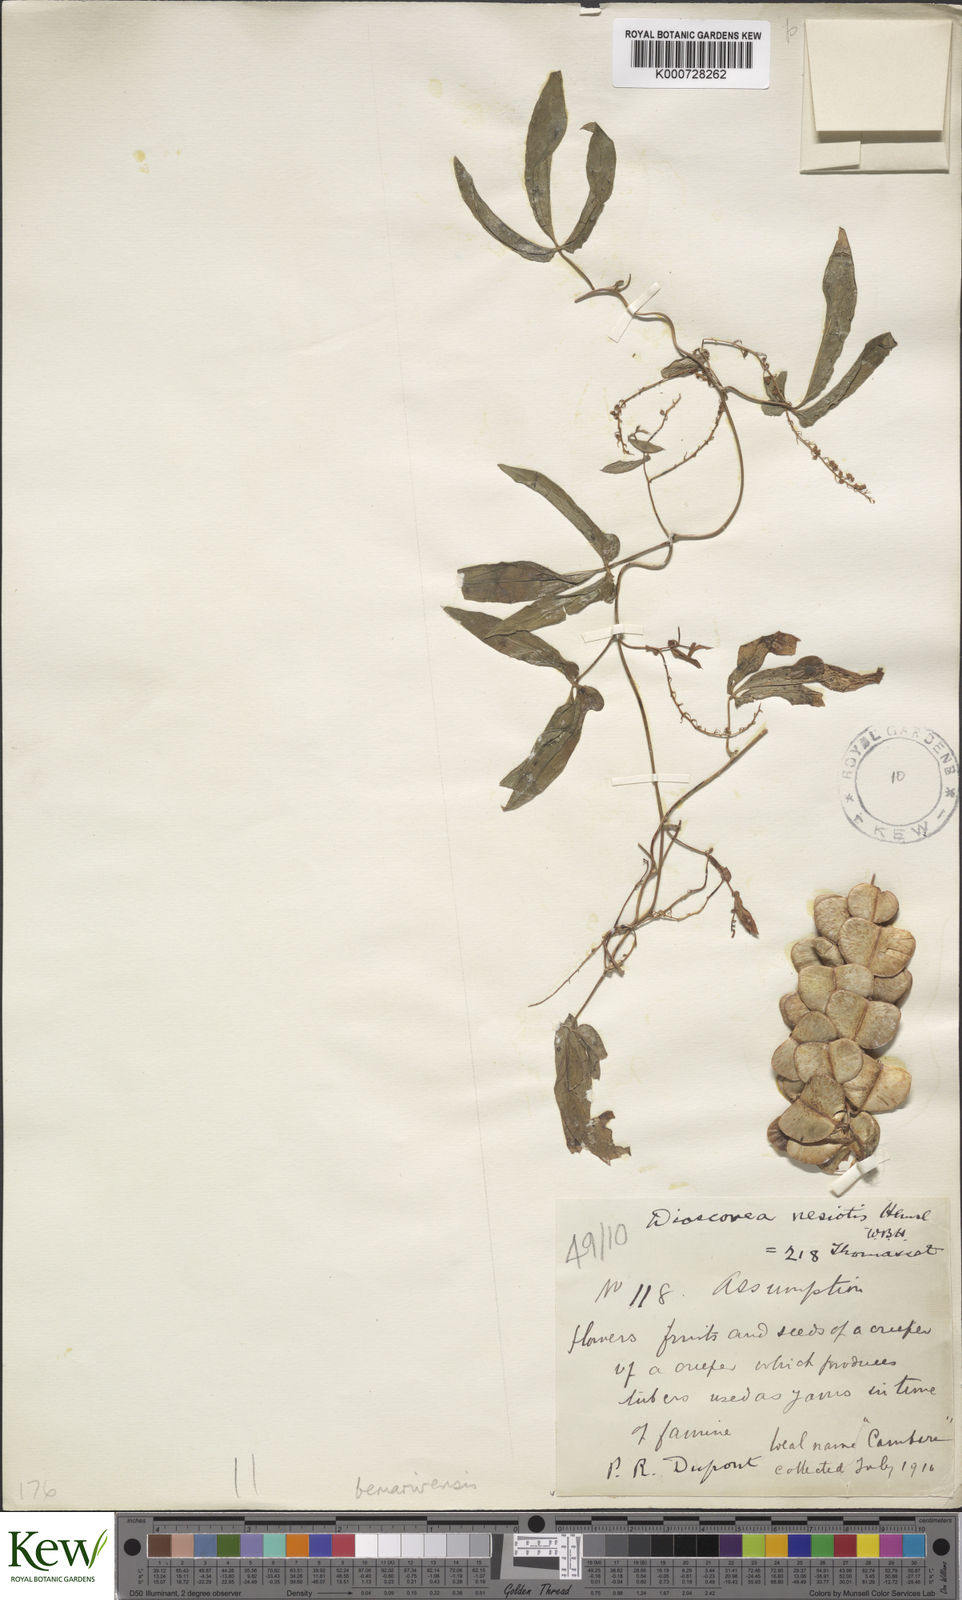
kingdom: Plantae
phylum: Tracheophyta
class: Liliopsida
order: Dioscoreales
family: Dioscoreaceae
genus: Dioscorea
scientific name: Dioscorea bemarivensis
